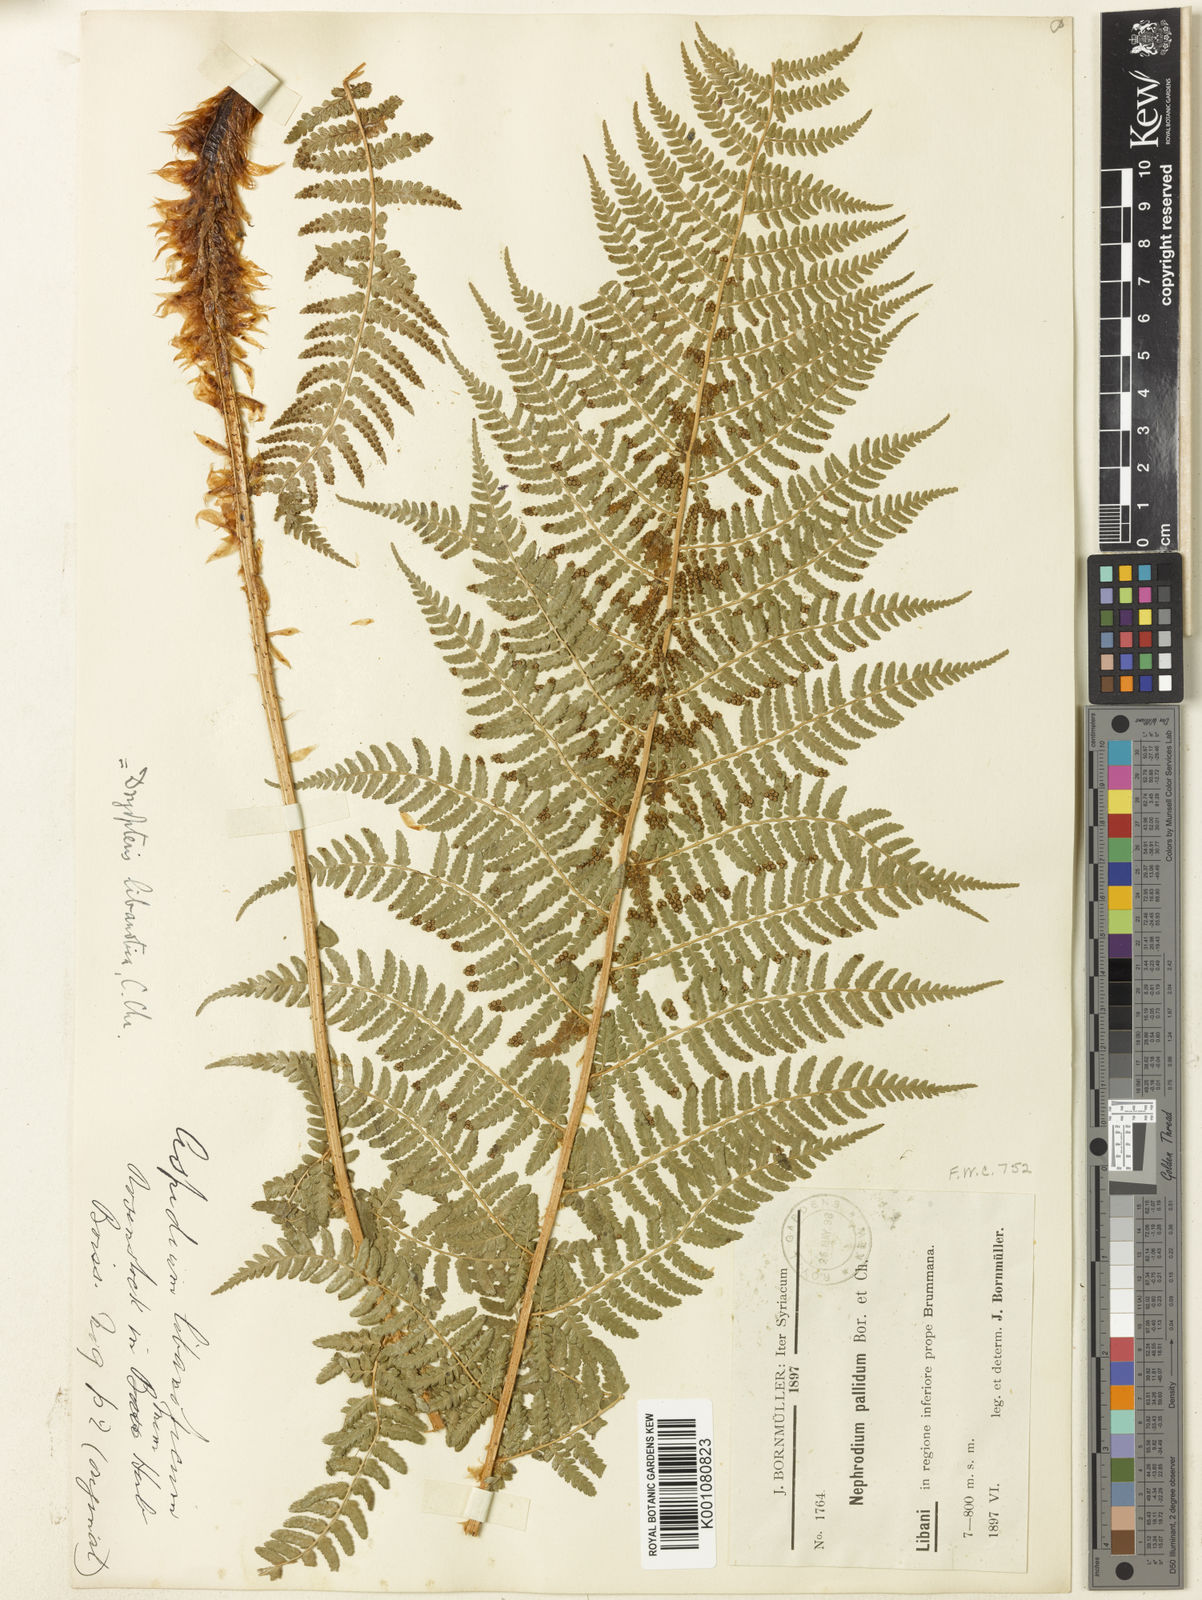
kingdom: Plantae
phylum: Tracheophyta
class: Polypodiopsida
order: Polypodiales
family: Dryopteridaceae
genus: Dryopteris
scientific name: Dryopteris
